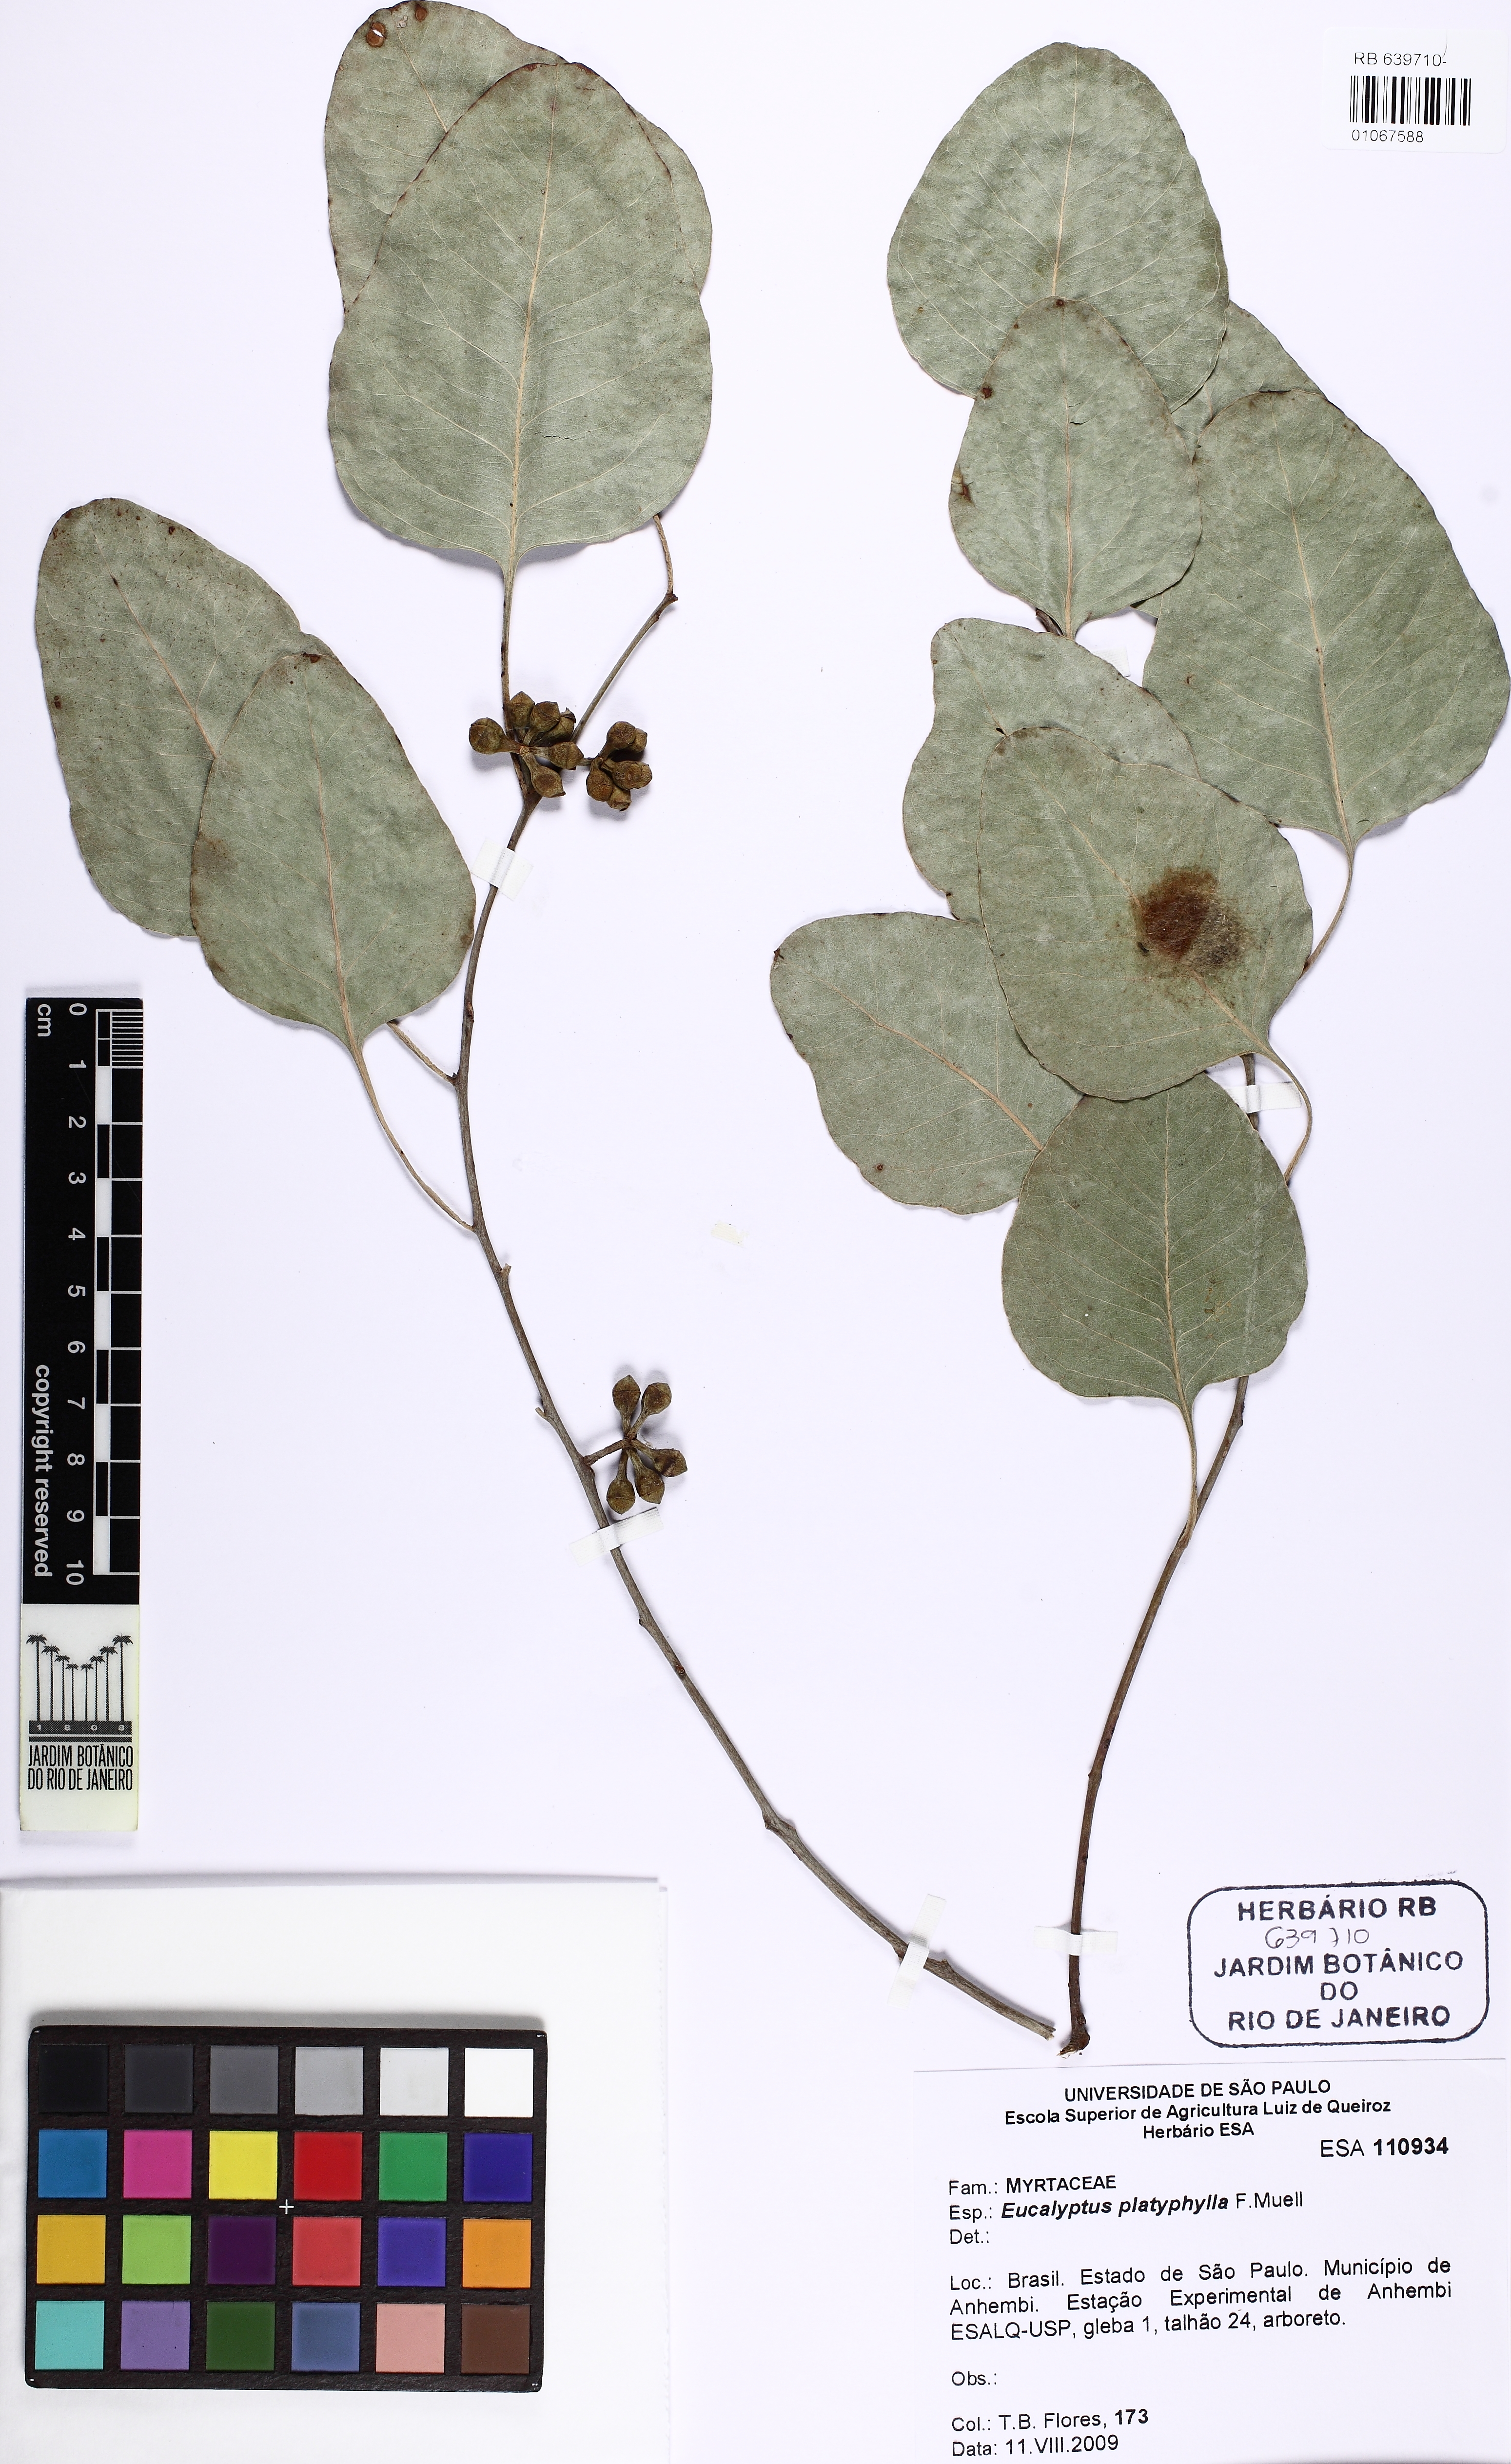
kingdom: Plantae
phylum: Tracheophyta
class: Magnoliopsida
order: Myrtales
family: Myrtaceae
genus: Eucalyptus
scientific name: Eucalyptus platyphylla
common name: Poplar-gum
